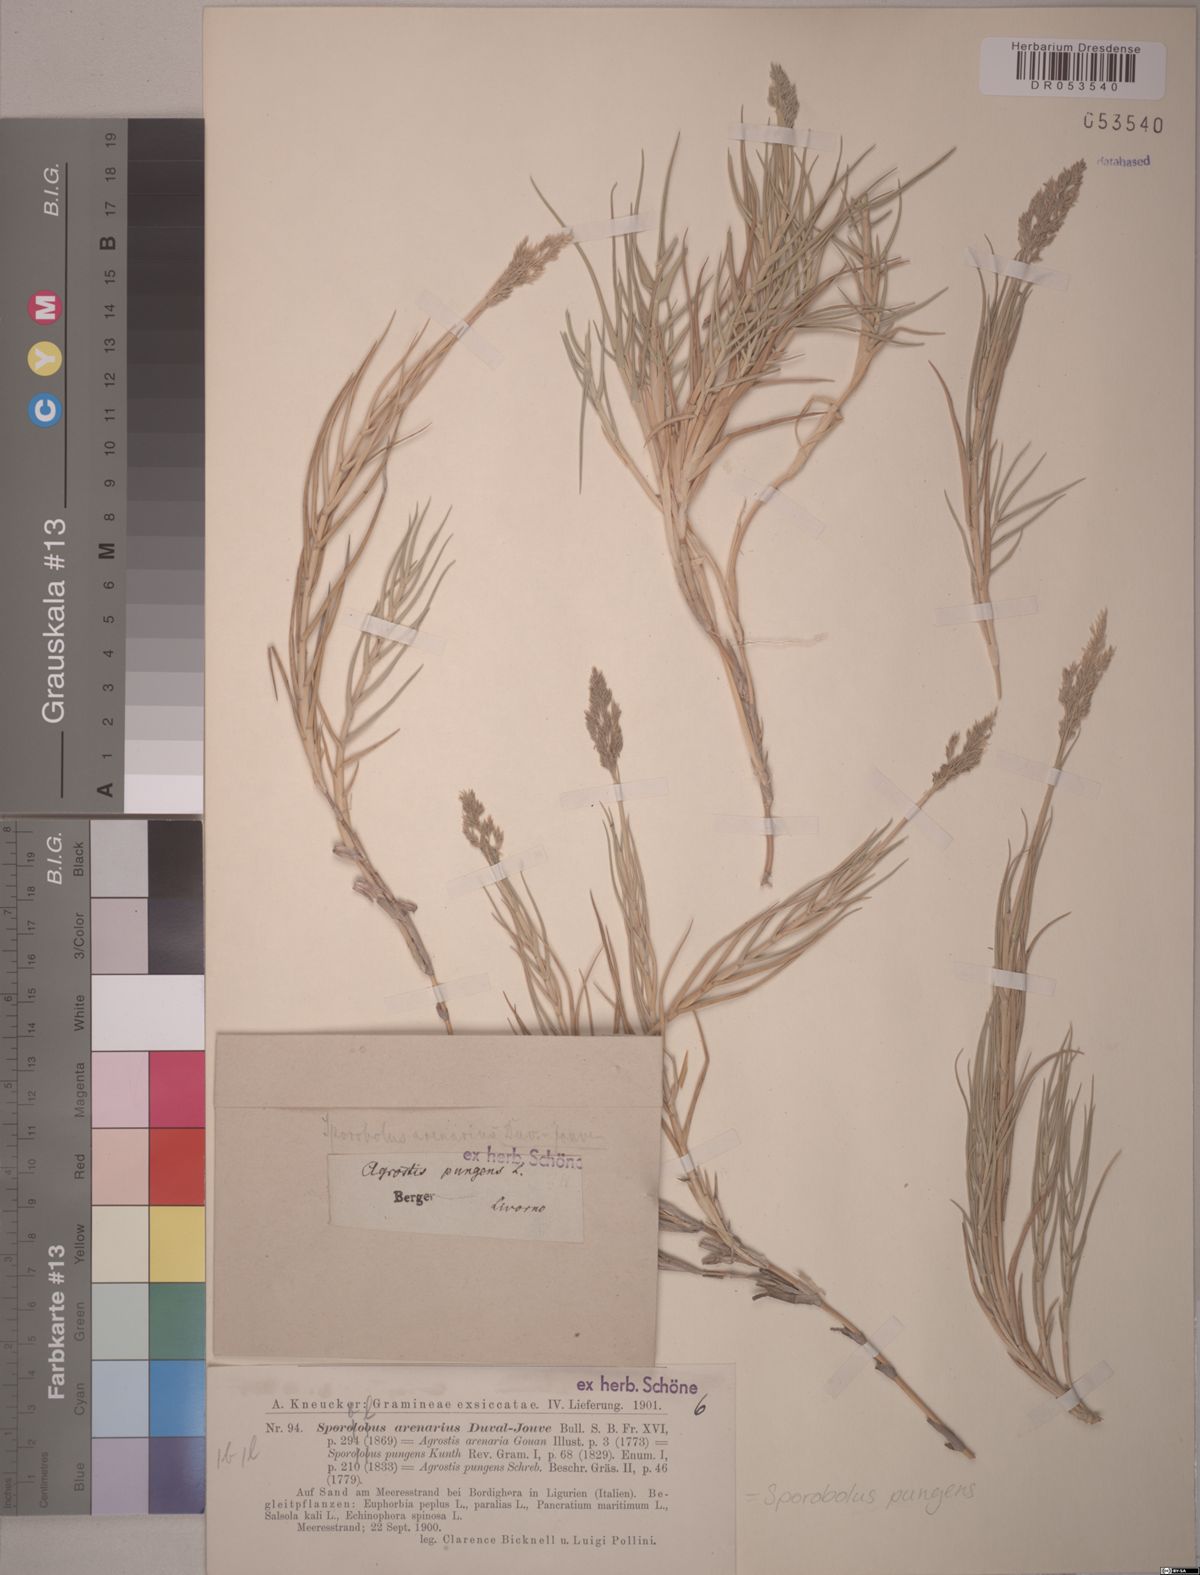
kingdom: Plantae
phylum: Tracheophyta
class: Liliopsida
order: Poales
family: Poaceae
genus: Sporobolus
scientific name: Sporobolus pungens
